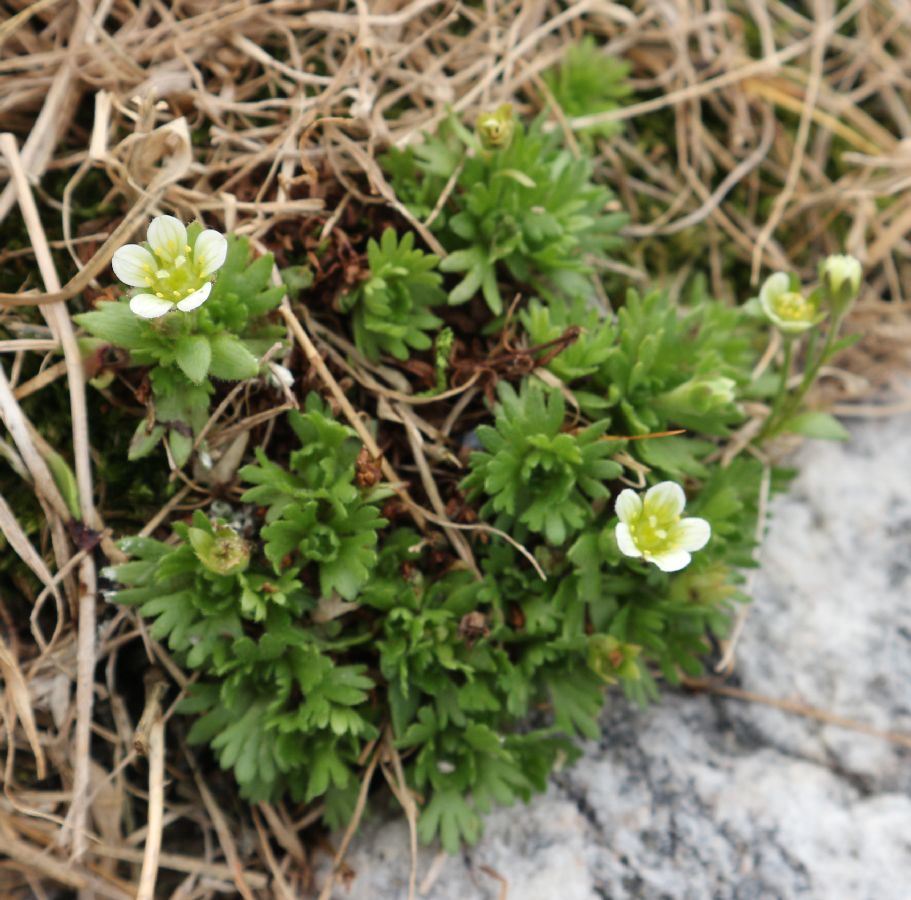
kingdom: Plantae
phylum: Tracheophyta
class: Magnoliopsida
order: Saxifragales
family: Saxifragaceae
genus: Saxifraga
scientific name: Saxifraga cespitosa
